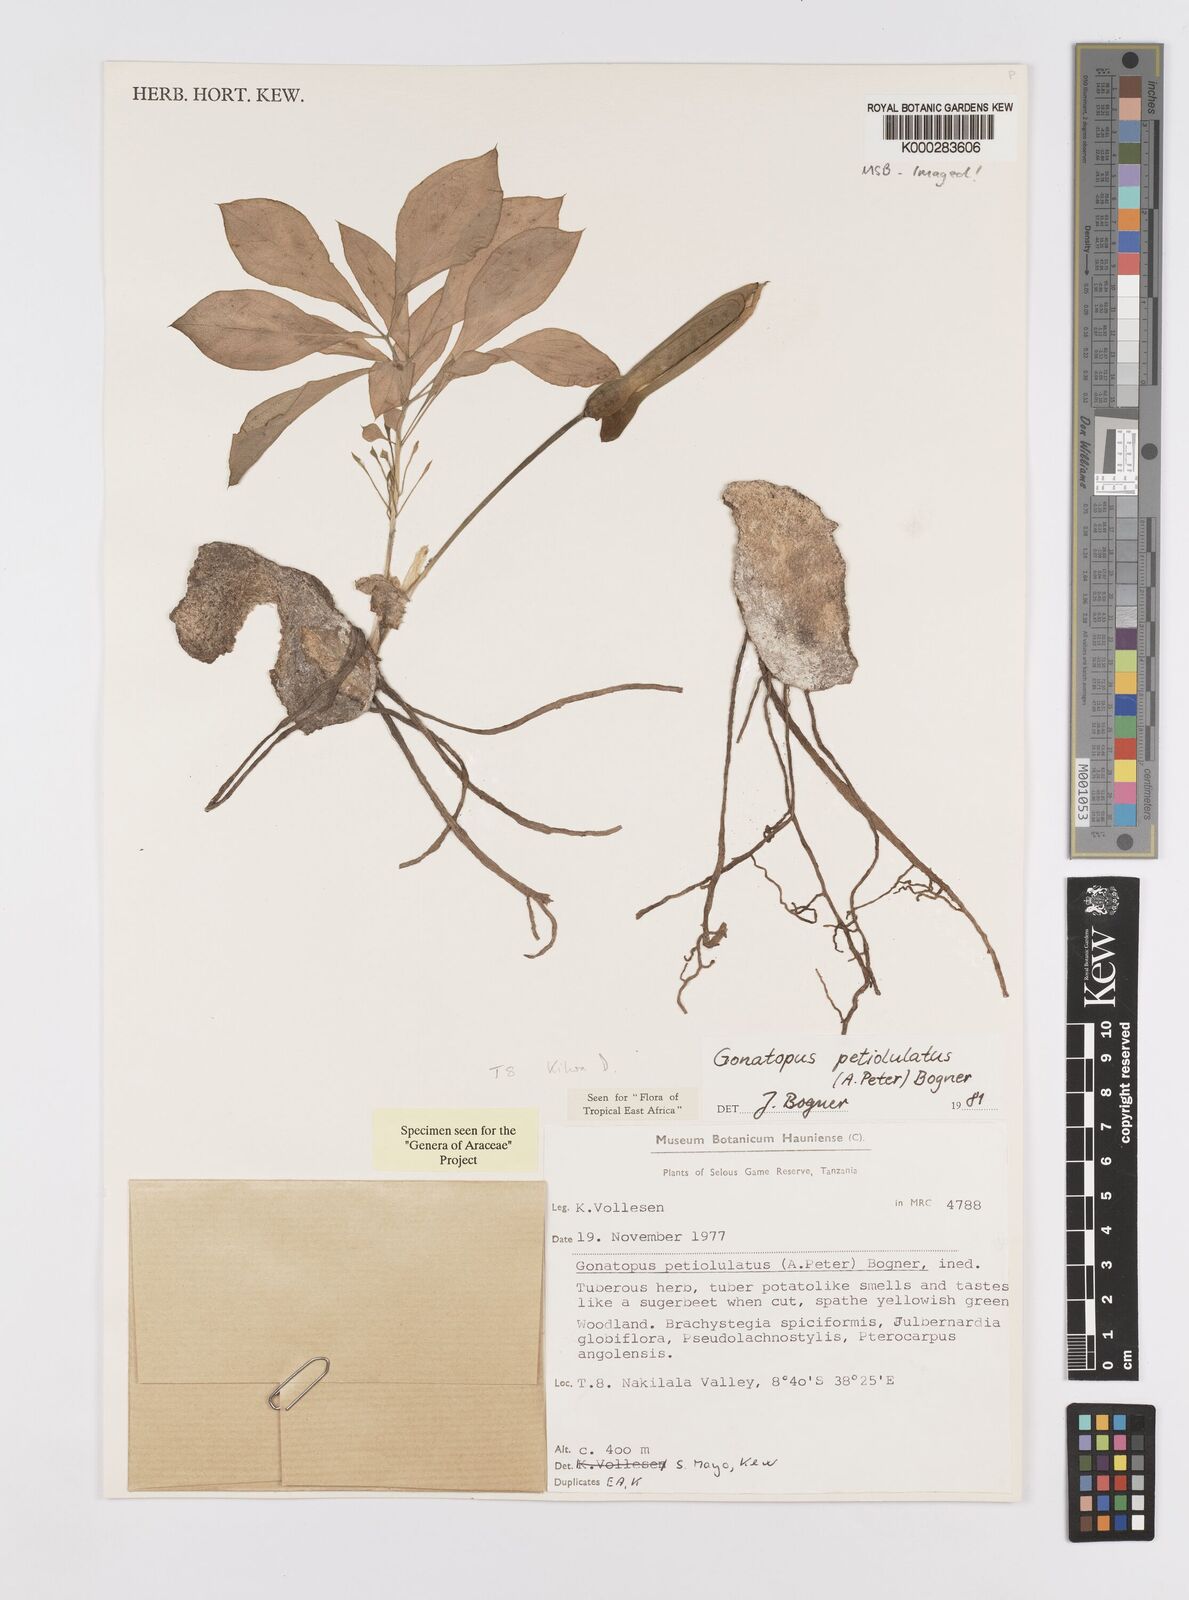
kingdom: Plantae
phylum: Tracheophyta
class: Liliopsida
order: Alismatales
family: Araceae
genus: Gonatopus
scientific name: Gonatopus petiolulatus
